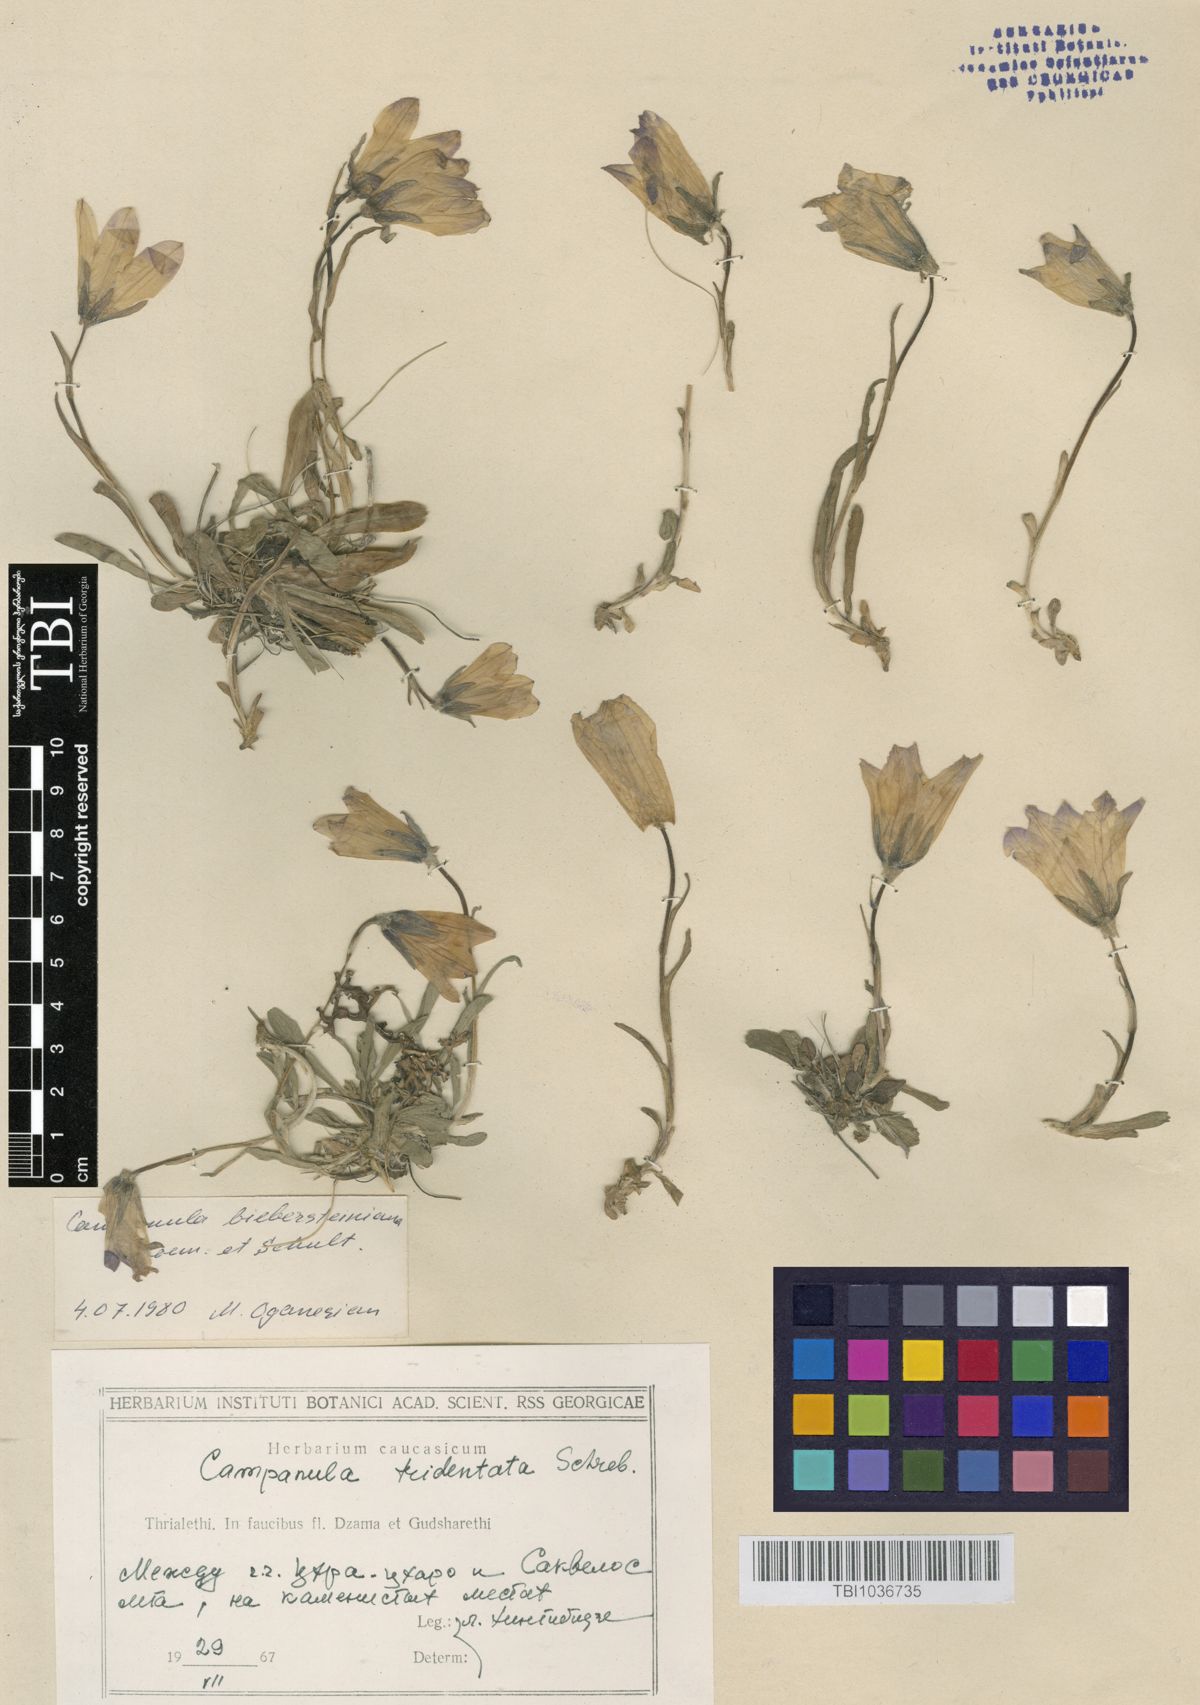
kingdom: Plantae
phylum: Tracheophyta
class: Magnoliopsida
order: Asterales
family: Campanulaceae
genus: Campanula
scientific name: Campanula tridentata
